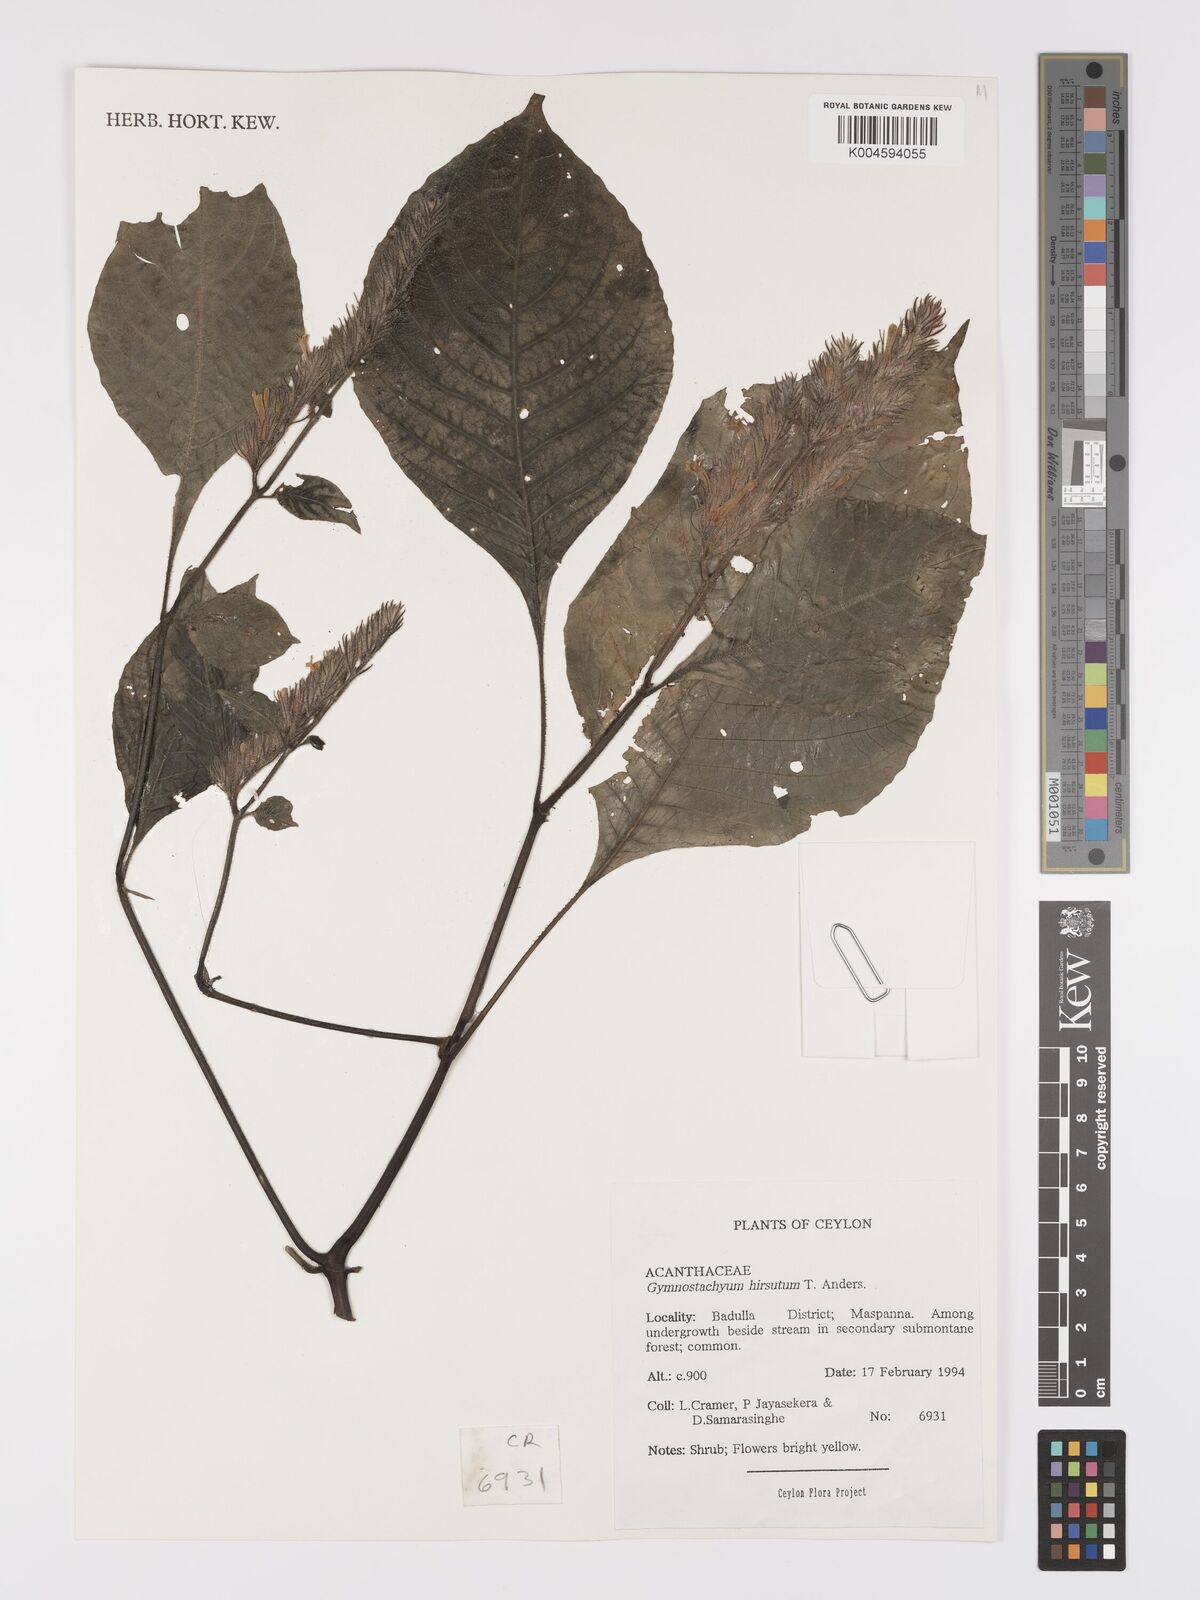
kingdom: Plantae
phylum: Tracheophyta
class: Magnoliopsida
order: Lamiales
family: Acanthaceae
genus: Gymnostachyum
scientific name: Gymnostachyum hirsutum
